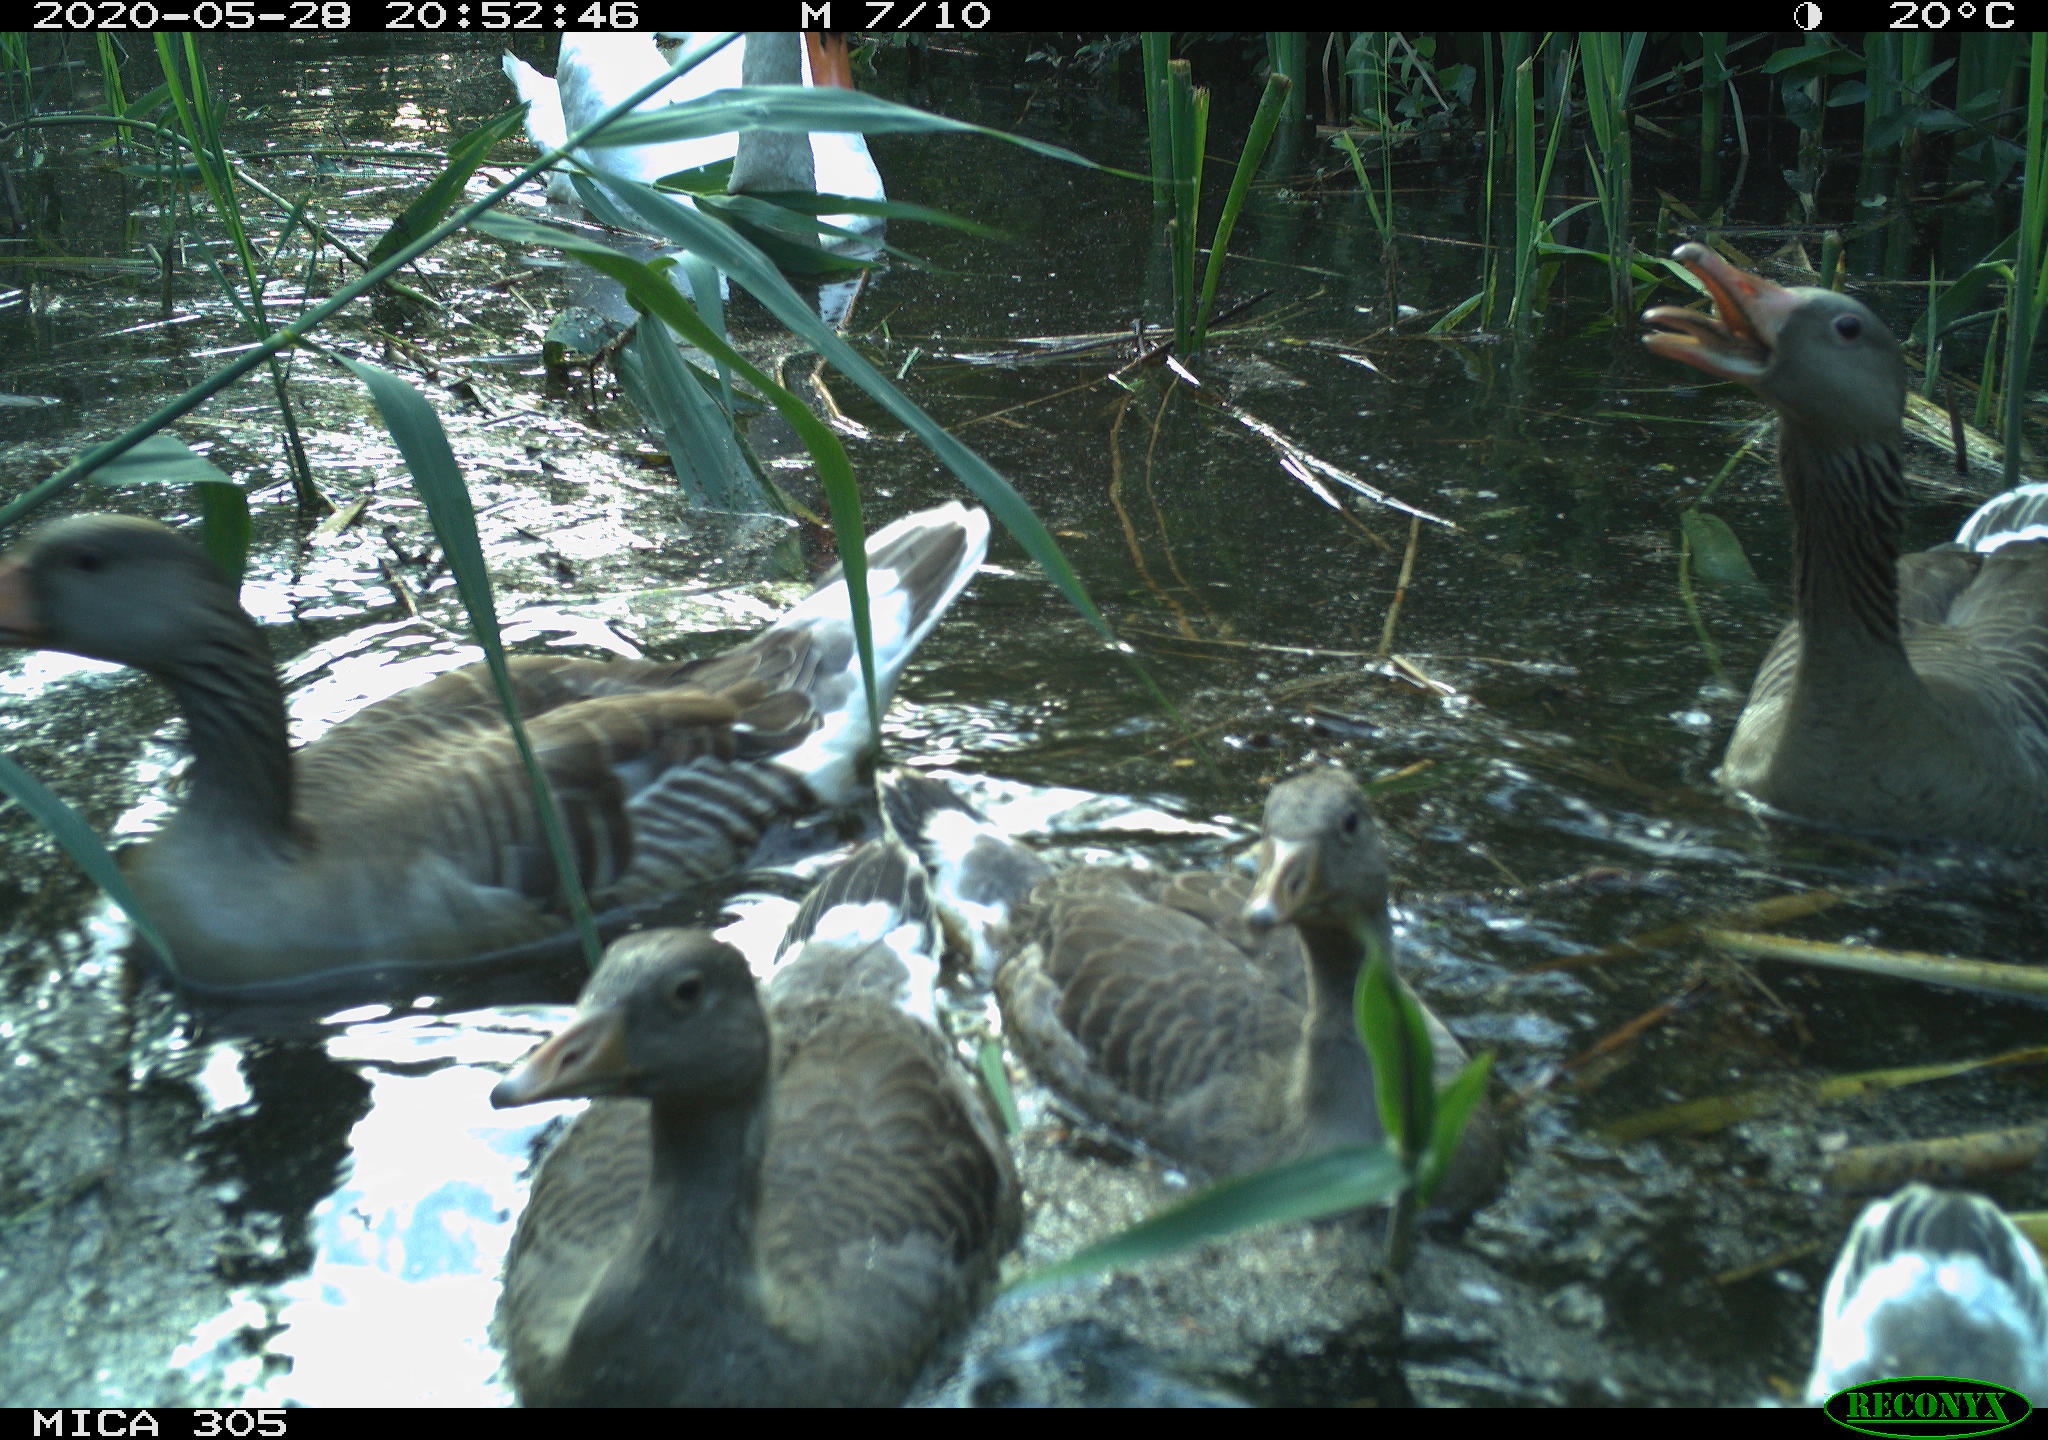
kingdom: Animalia
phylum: Chordata
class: Aves
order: Anseriformes
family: Anatidae
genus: Cygnus
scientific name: Cygnus olor
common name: Mute swan
